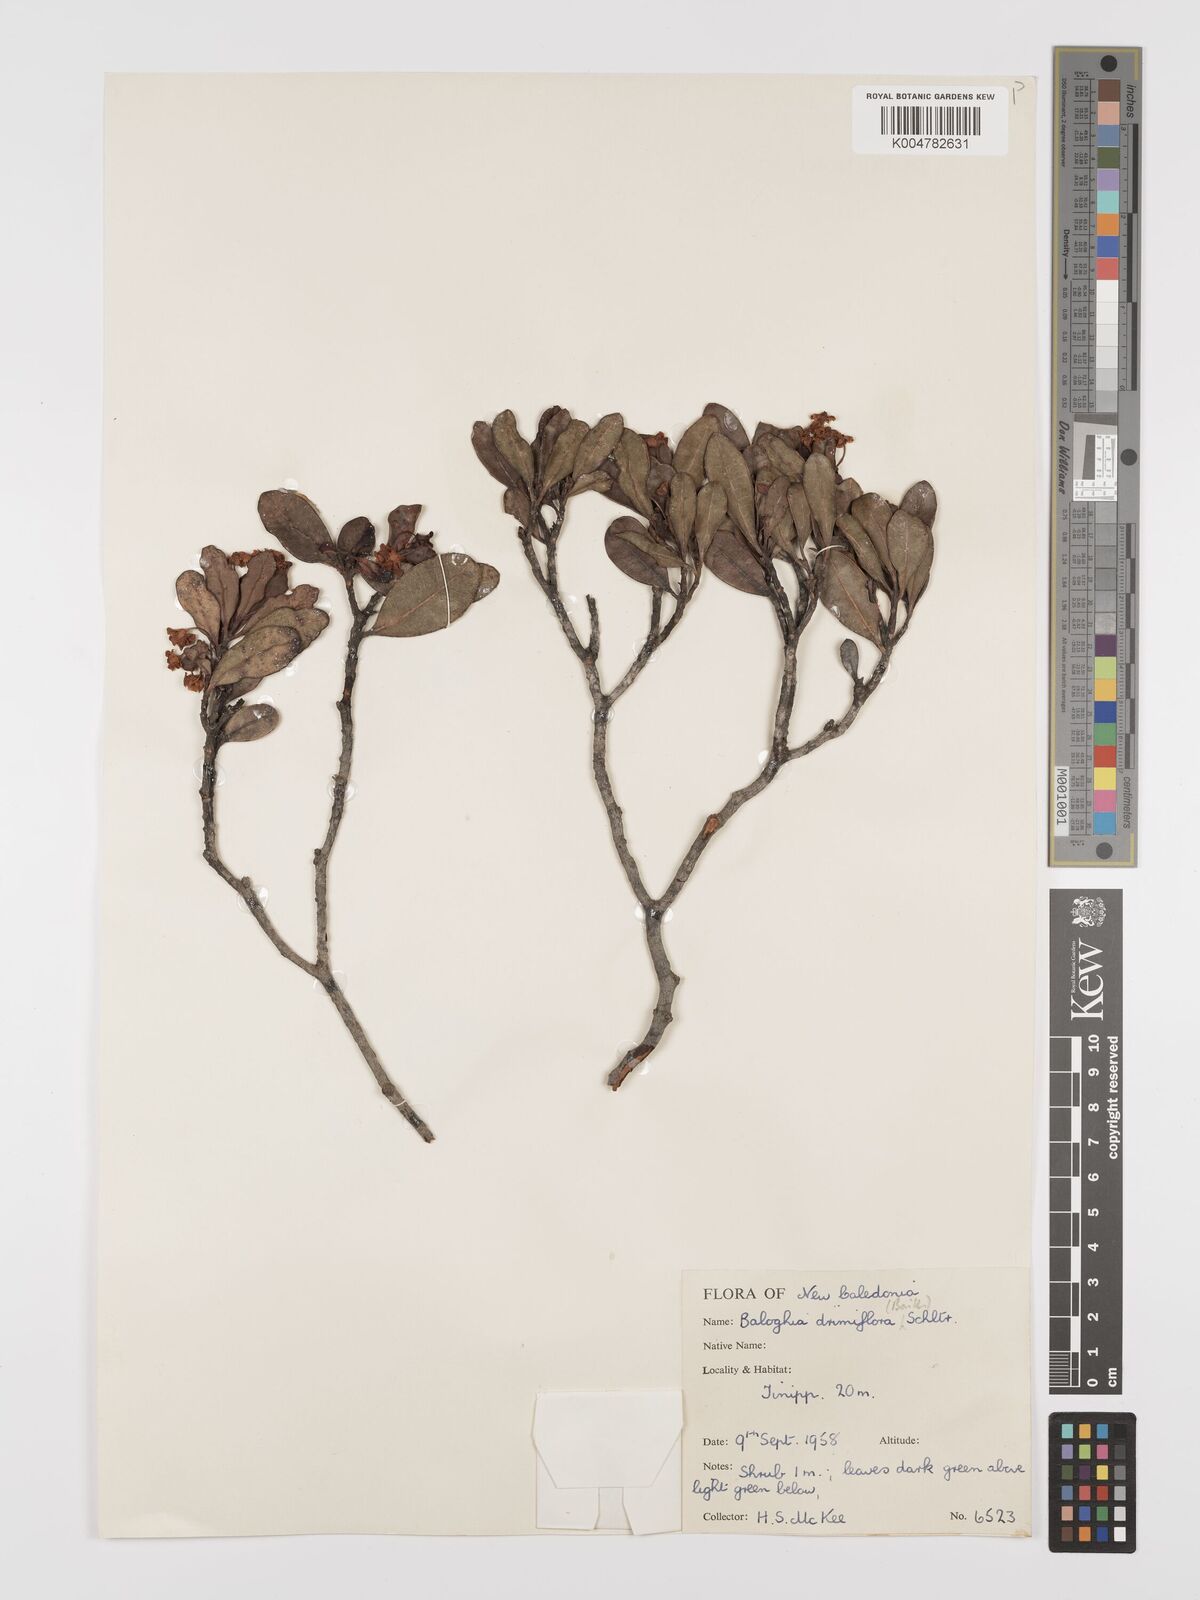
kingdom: Plantae
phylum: Tracheophyta
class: Magnoliopsida
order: Malpighiales
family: Euphorbiaceae
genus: Baloghia
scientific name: Baloghia drimiflora
